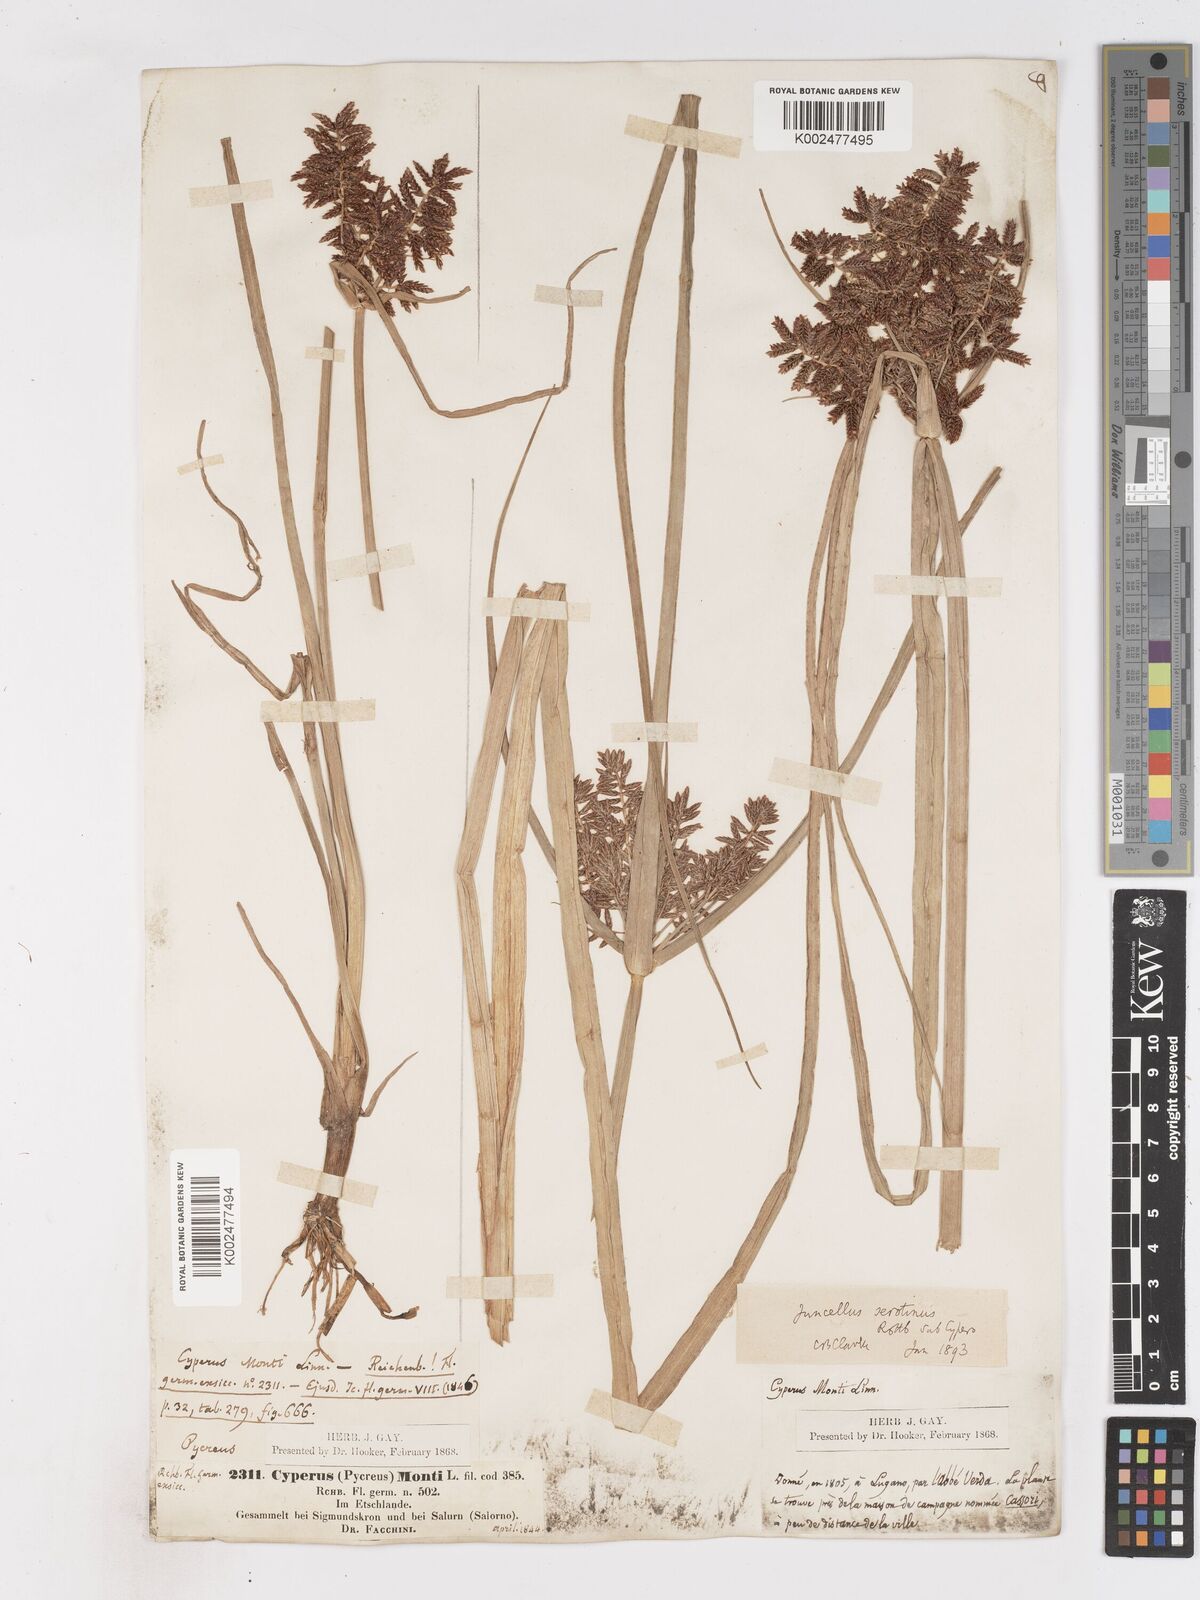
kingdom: Plantae
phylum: Tracheophyta
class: Liliopsida
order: Poales
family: Cyperaceae
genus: Cyperus
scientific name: Cyperus serotinus
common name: Tidalmarsh flatsedge
